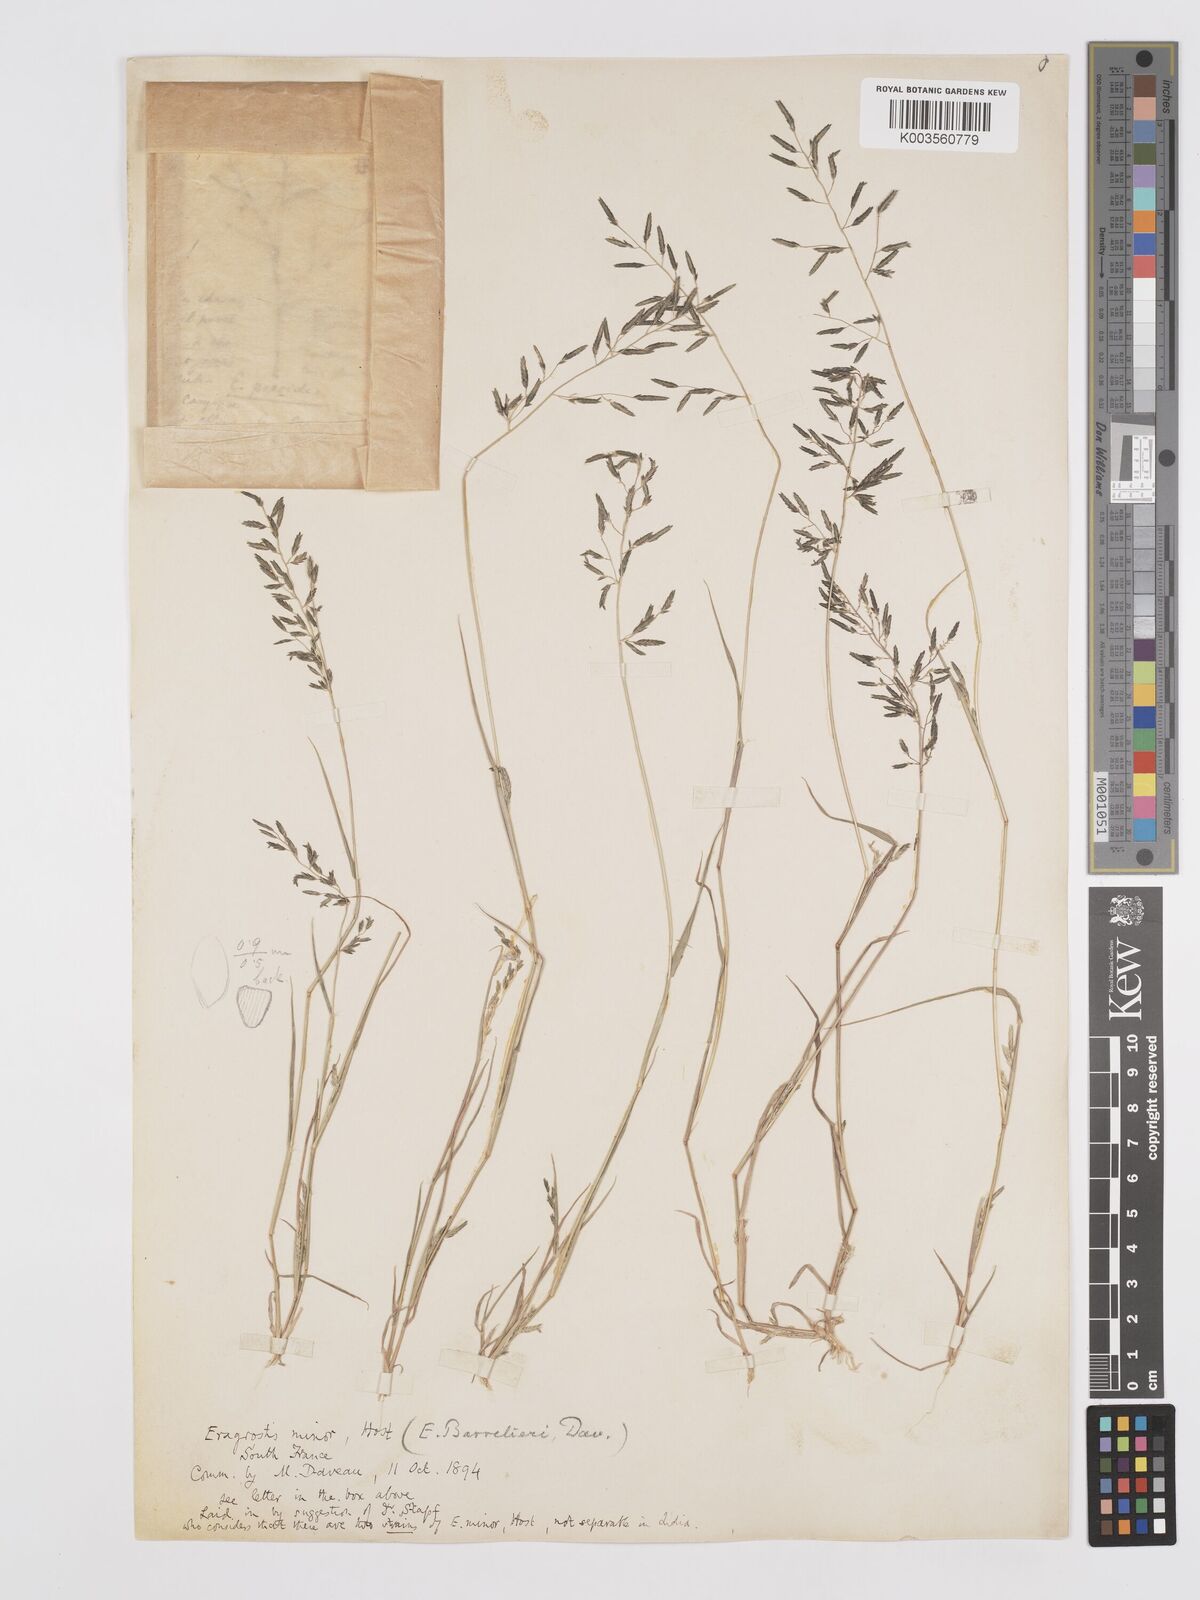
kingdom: Plantae
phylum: Tracheophyta
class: Liliopsida
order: Poales
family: Poaceae
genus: Eragrostis
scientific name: Eragrostis barrelieri
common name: Mediterranean lovegrass
